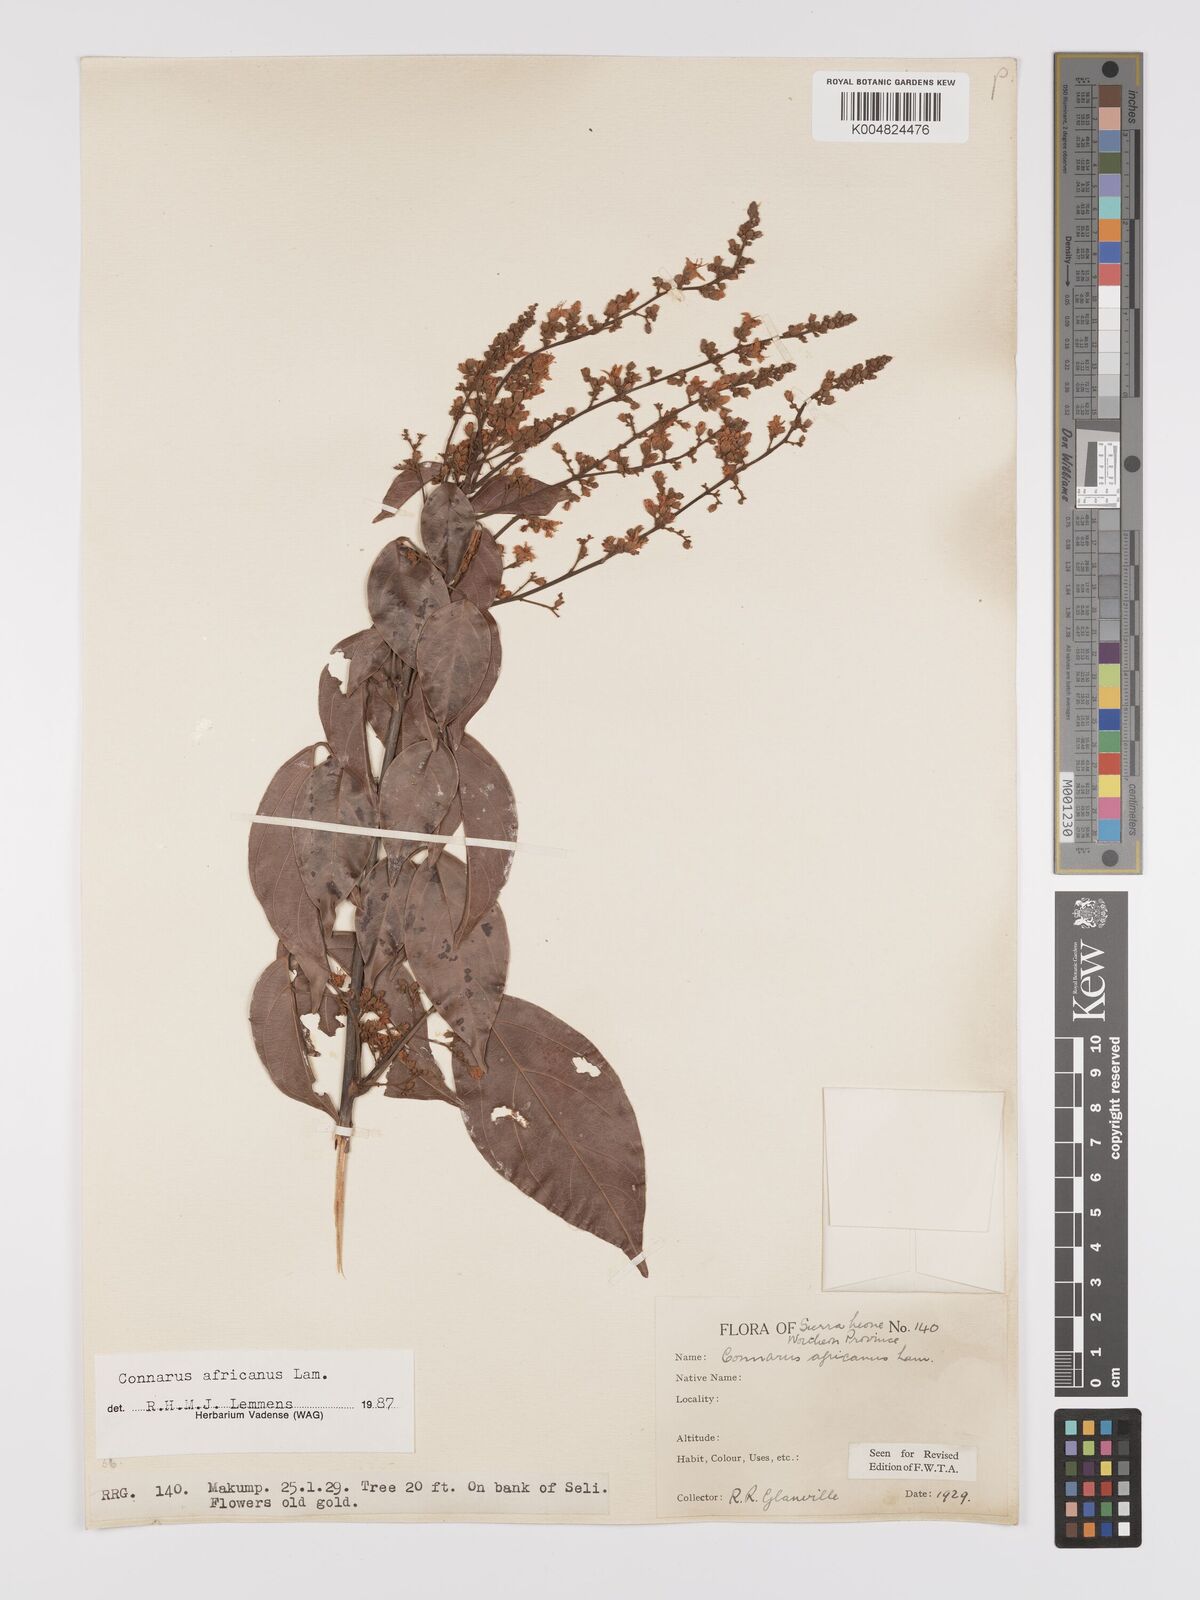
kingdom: Plantae
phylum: Tracheophyta
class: Magnoliopsida
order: Oxalidales
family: Connaraceae
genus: Connarus
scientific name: Connarus africanus
